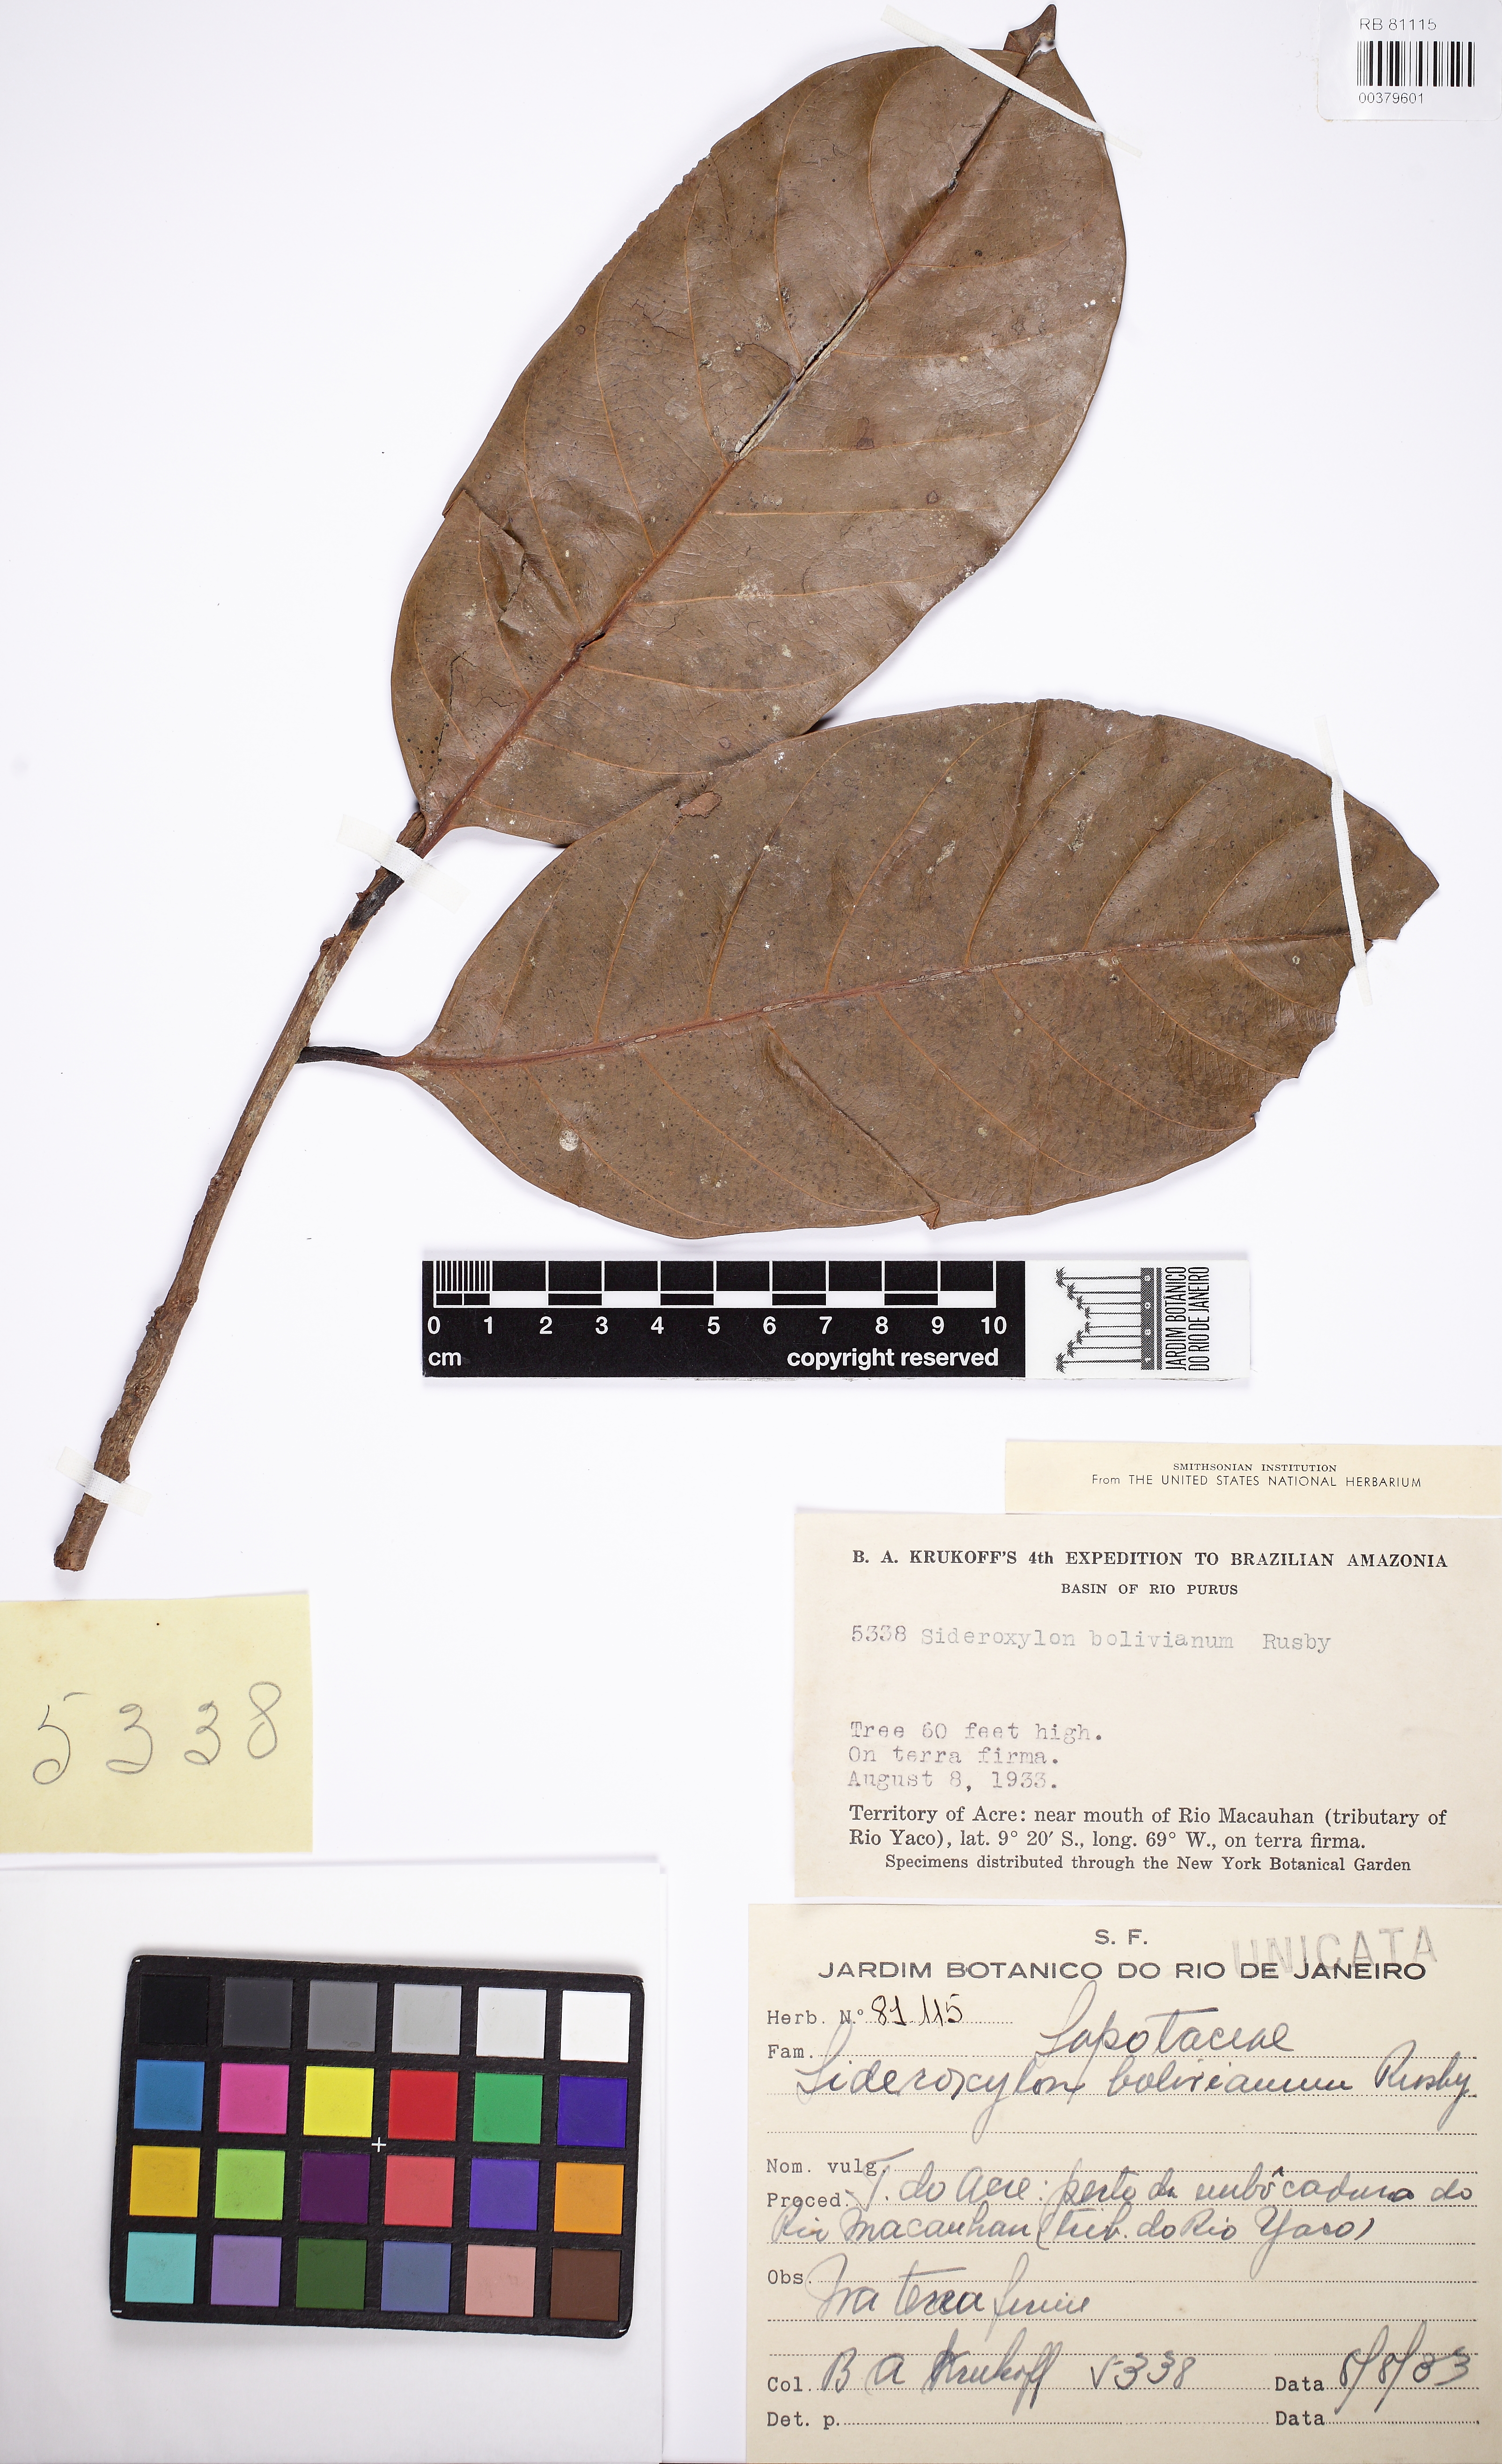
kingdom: Plantae
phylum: Tracheophyta
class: Magnoliopsida
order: Ericales
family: Sapotaceae
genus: Chrysophyllum
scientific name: Chrysophyllum gonocarpum
